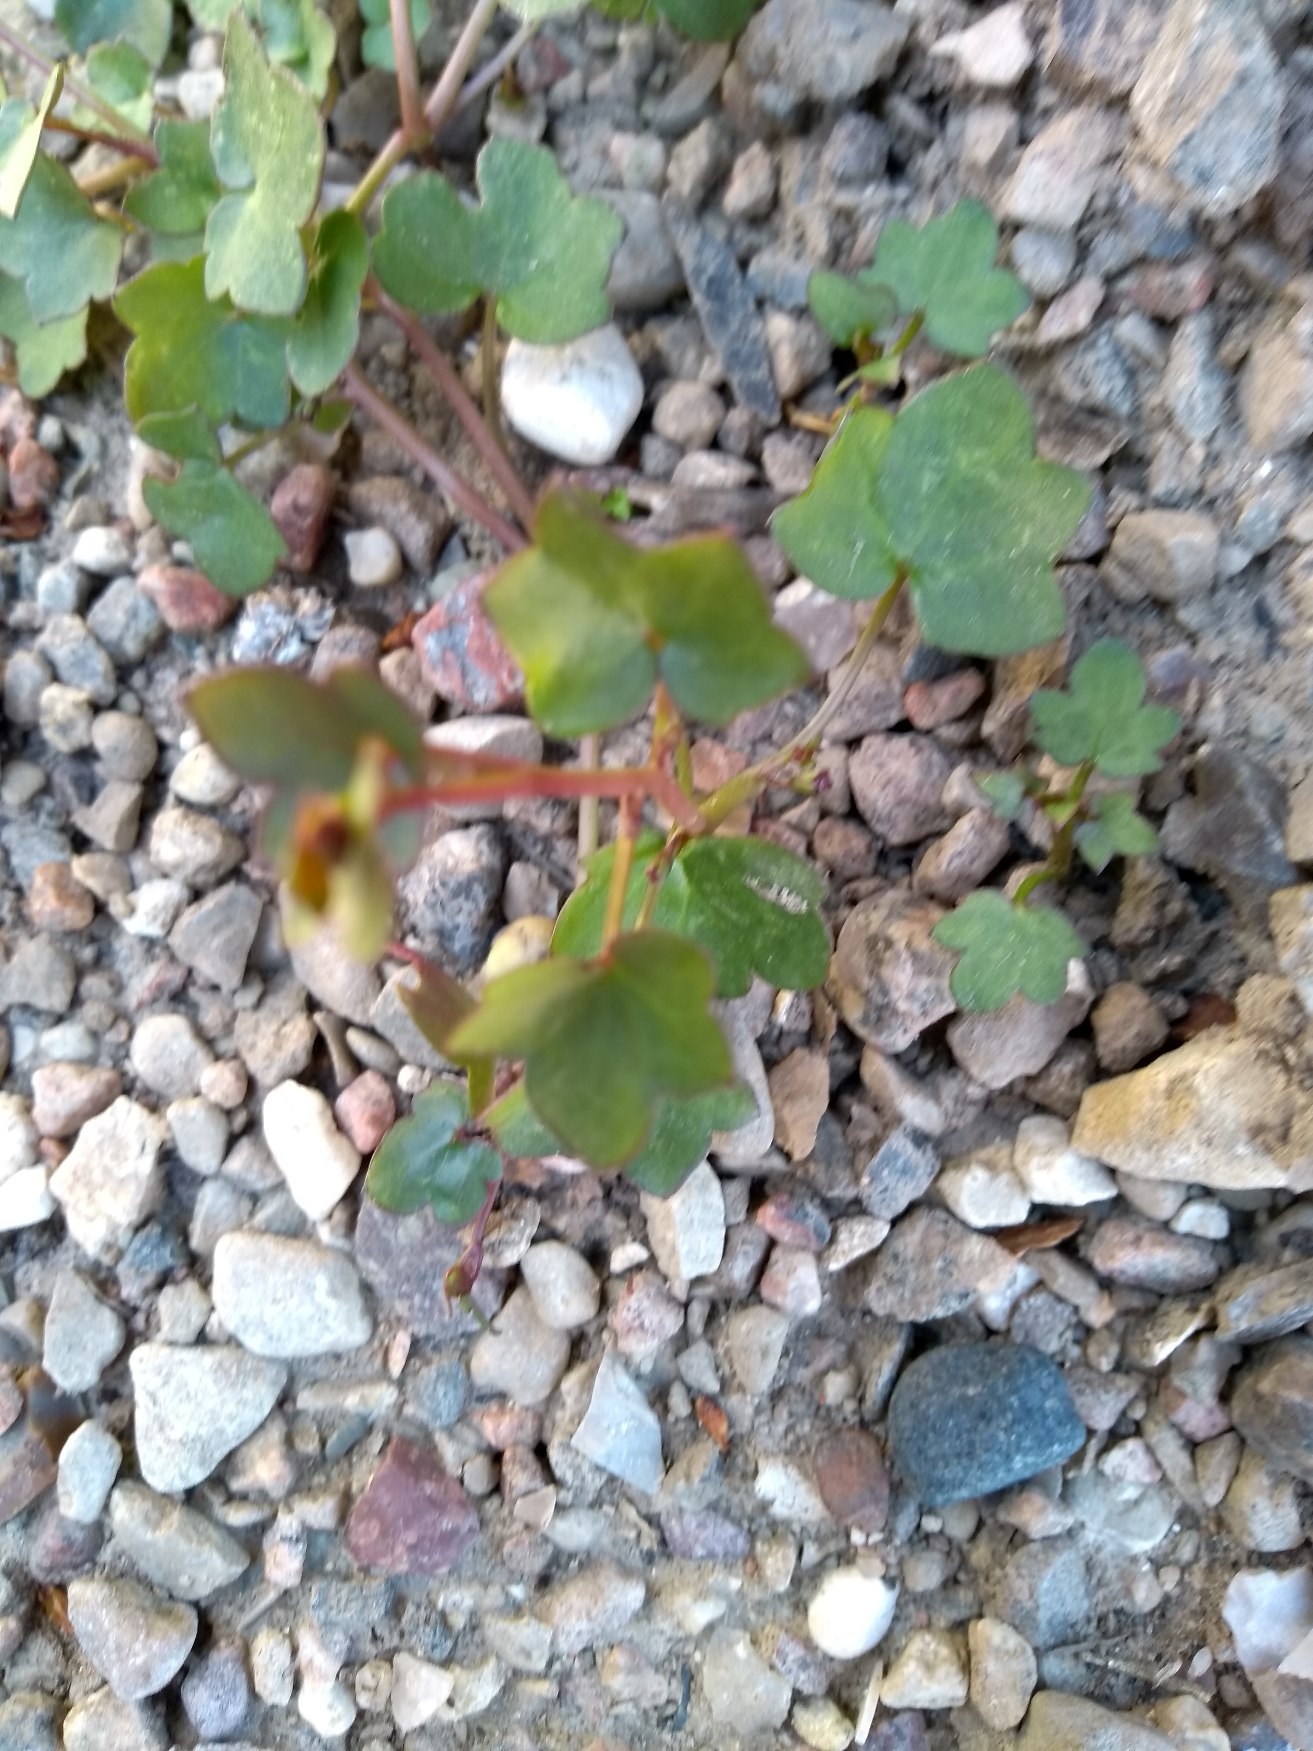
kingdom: Plantae
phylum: Tracheophyta
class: Magnoliopsida
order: Lamiales
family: Plantaginaceae
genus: Cymbalaria
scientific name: Cymbalaria muralis
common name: Vedbend-torskemund
